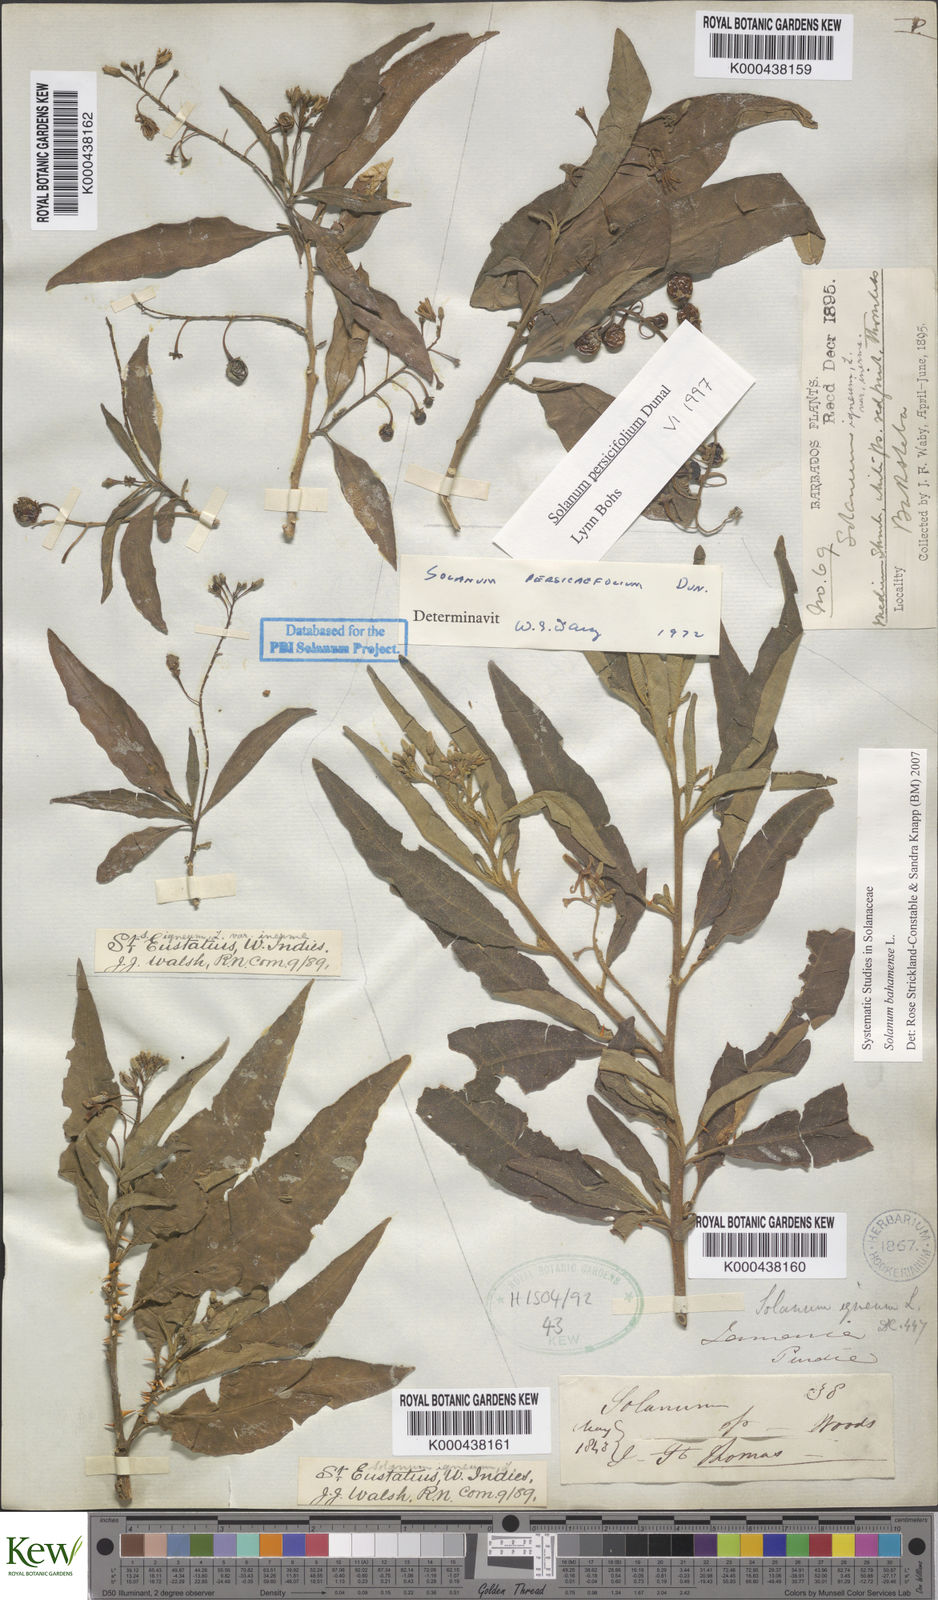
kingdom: Plantae
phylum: Tracheophyta
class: Magnoliopsida
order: Solanales
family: Solanaceae
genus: Solanum
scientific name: Solanum bahamense
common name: Canker-berry
